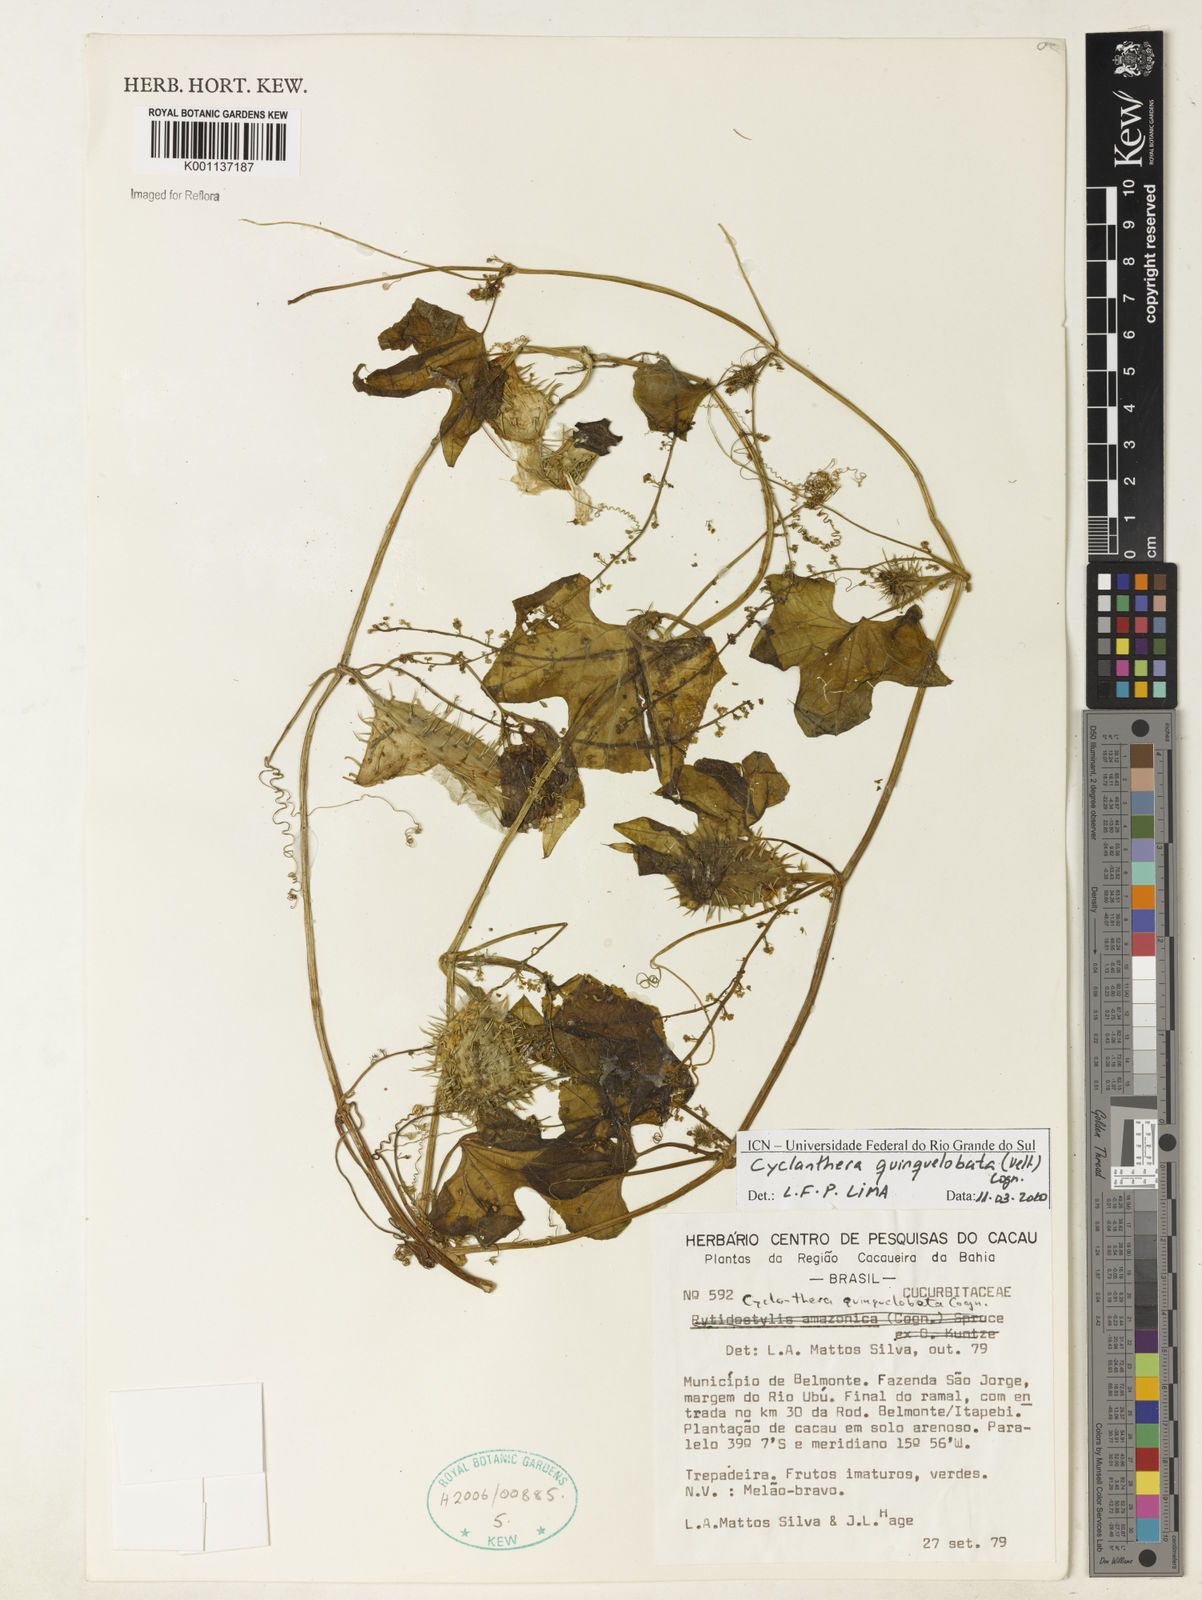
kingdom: Plantae
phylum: Tracheophyta
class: Magnoliopsida
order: Cucurbitales
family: Cucurbitaceae
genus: Cyclanthera
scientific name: Cyclanthera quinquelobata
